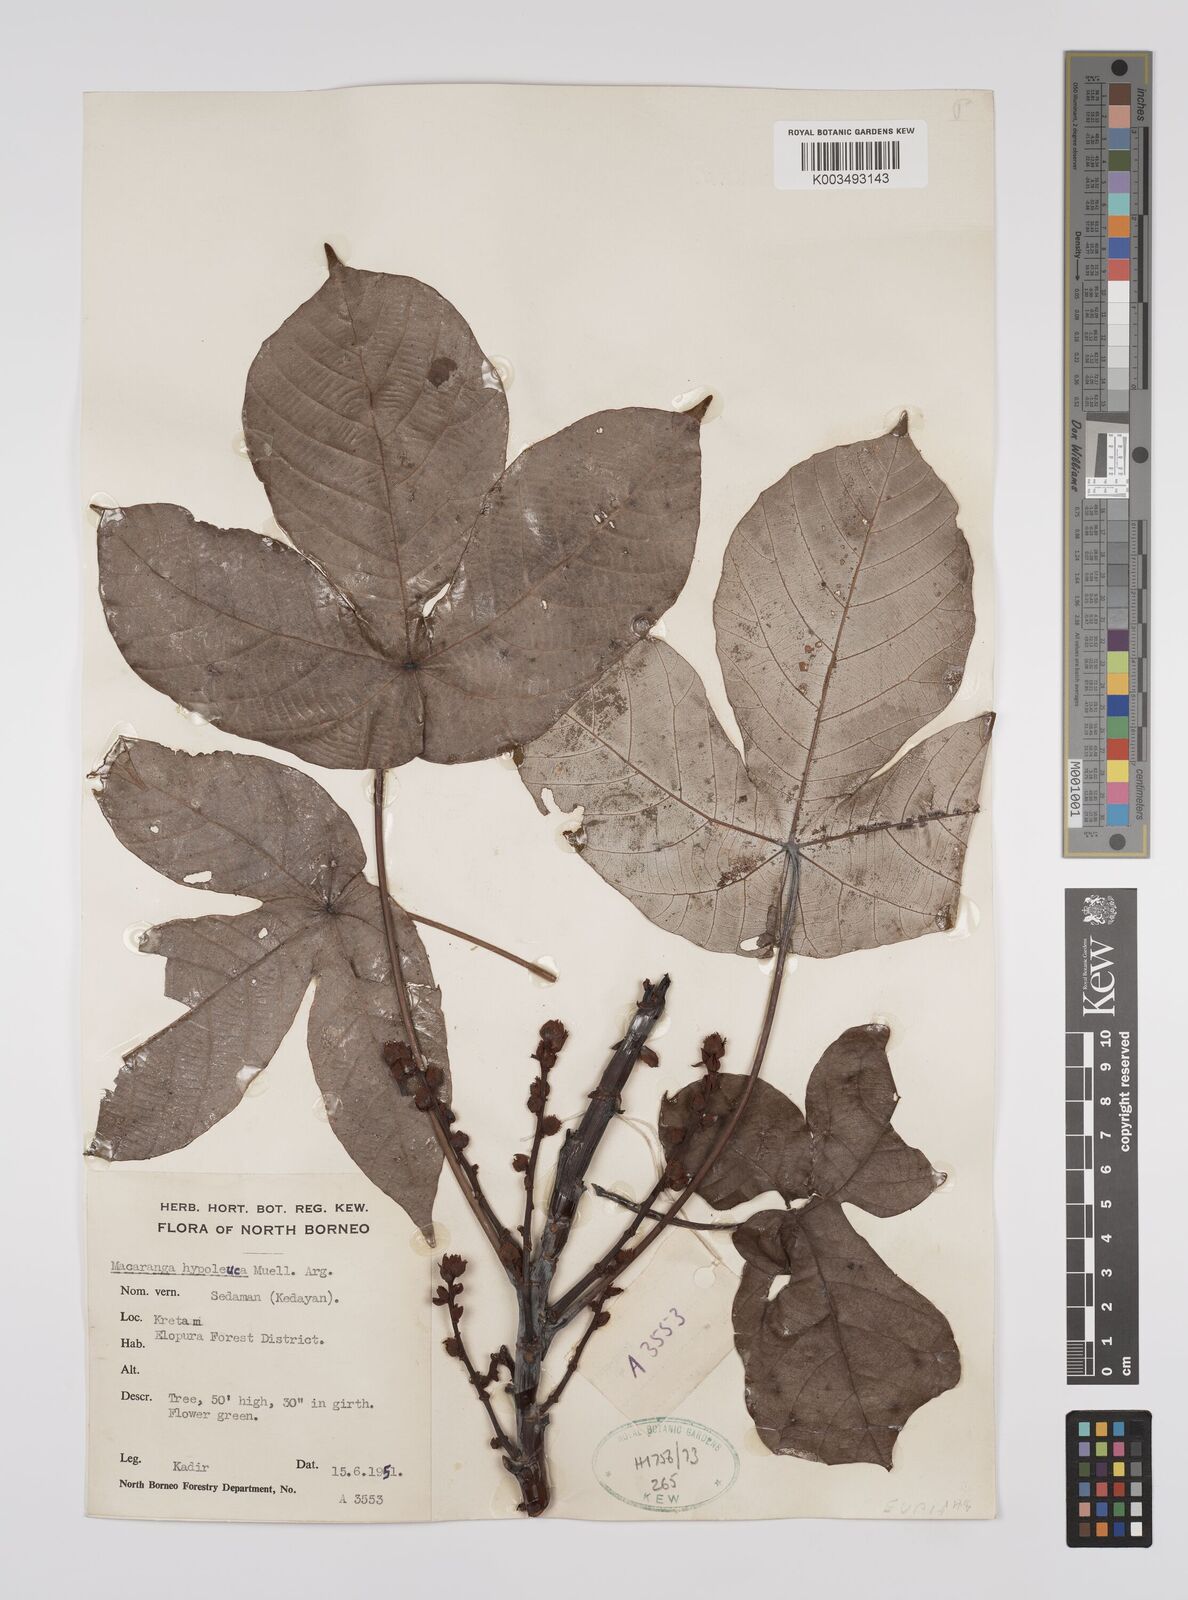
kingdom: Plantae
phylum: Tracheophyta
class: Magnoliopsida
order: Malpighiales
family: Euphorbiaceae
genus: Macaranga
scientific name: Macaranga hypoleuca
